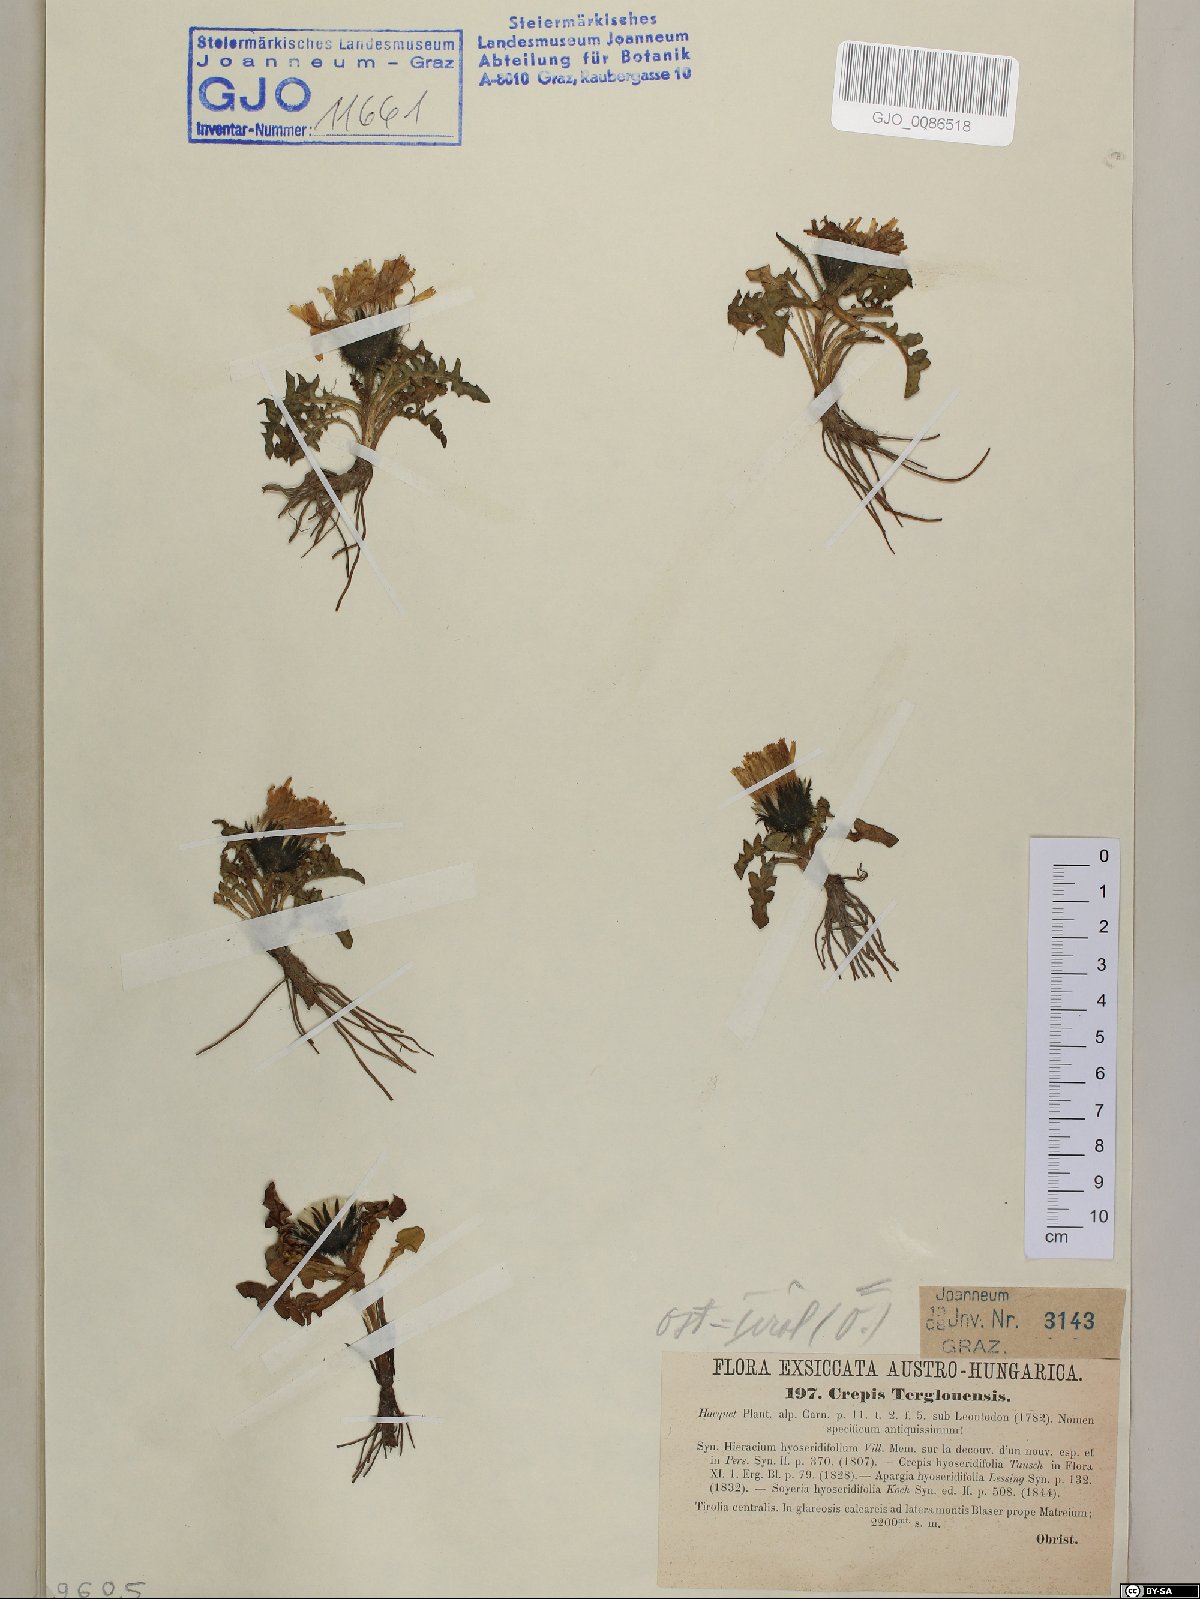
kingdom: Plantae
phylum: Tracheophyta
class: Magnoliopsida
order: Asterales
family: Asteraceae
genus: Crepis
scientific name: Crepis terglouensis
